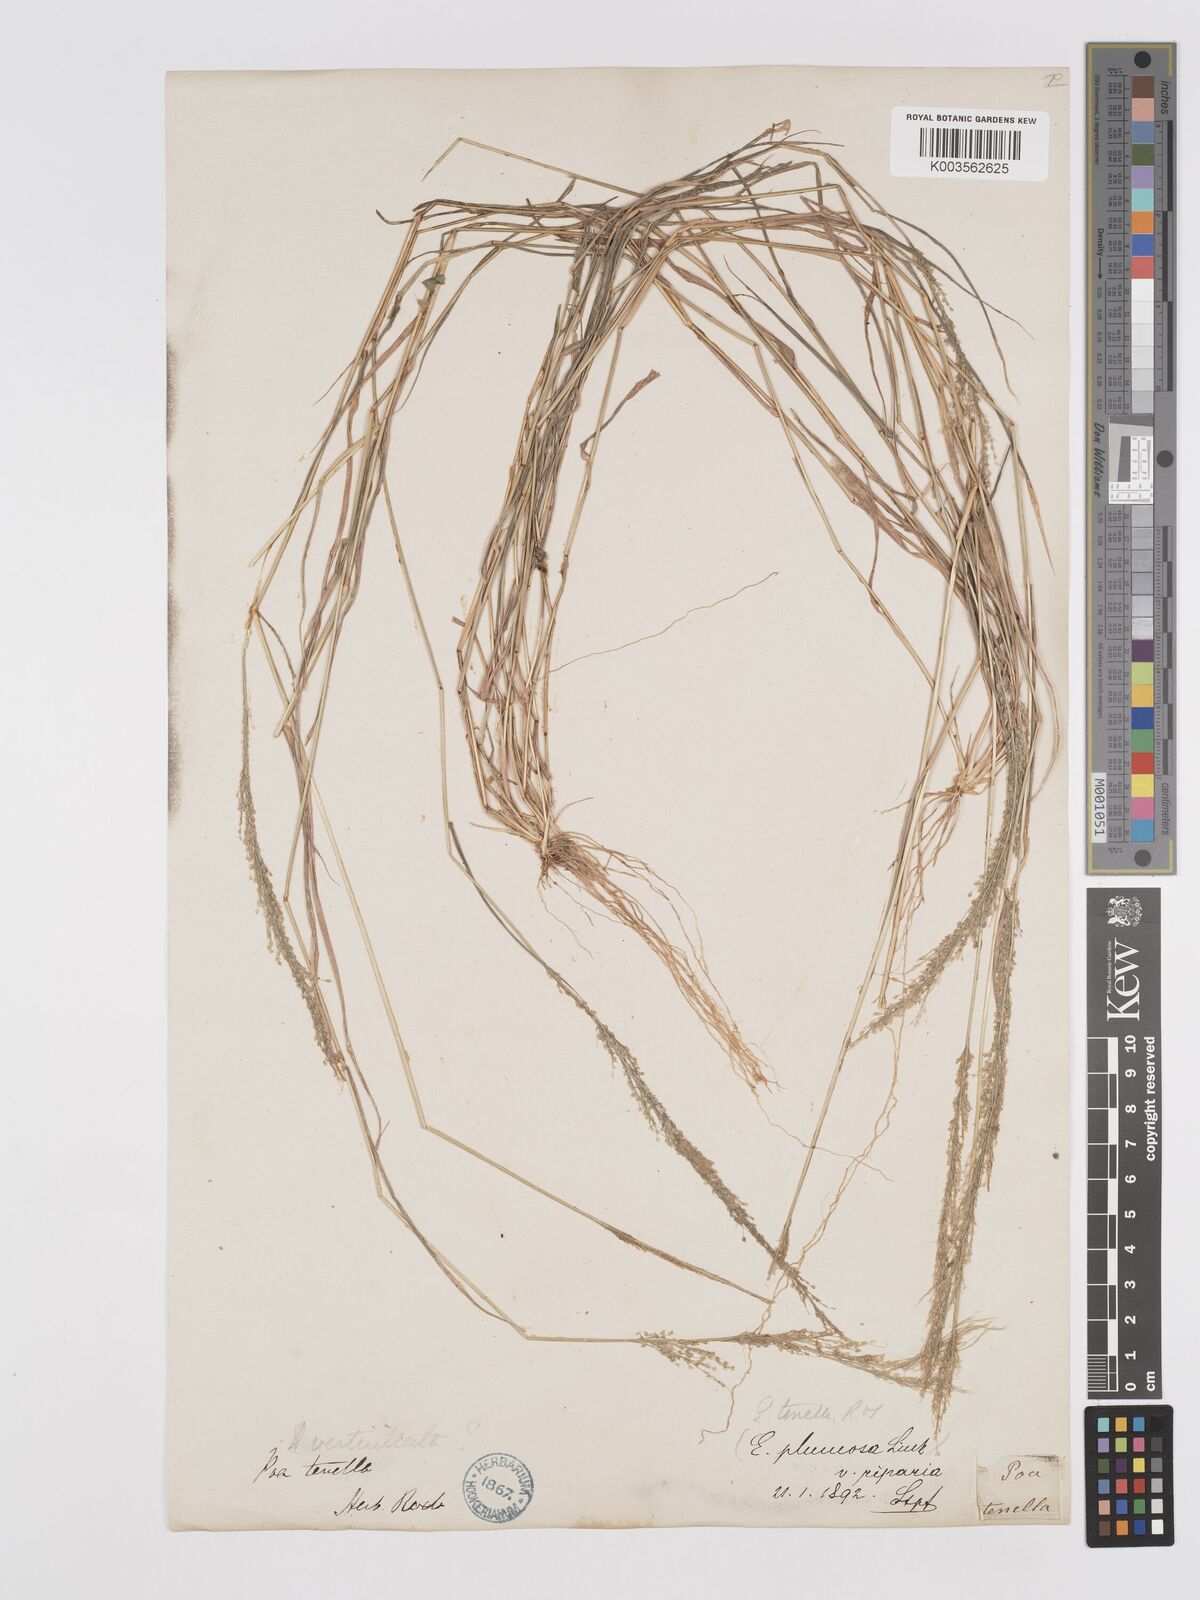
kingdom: Plantae
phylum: Tracheophyta
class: Liliopsida
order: Poales
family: Poaceae
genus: Eragrostis
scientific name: Eragrostis tenella
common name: Japanese lovegrass
